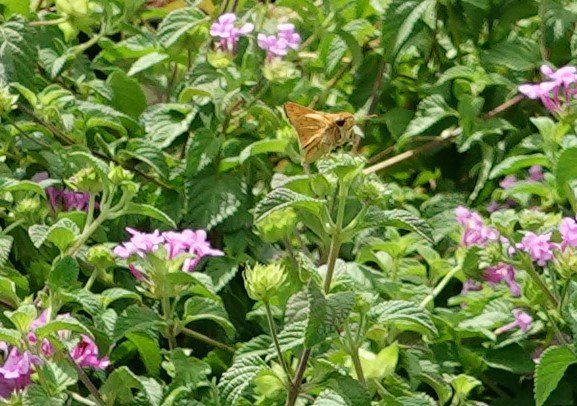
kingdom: Animalia
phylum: Arthropoda
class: Insecta
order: Lepidoptera
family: Hesperiidae
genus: Hylephila
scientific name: Hylephila phyleus
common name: Fiery Skipper
